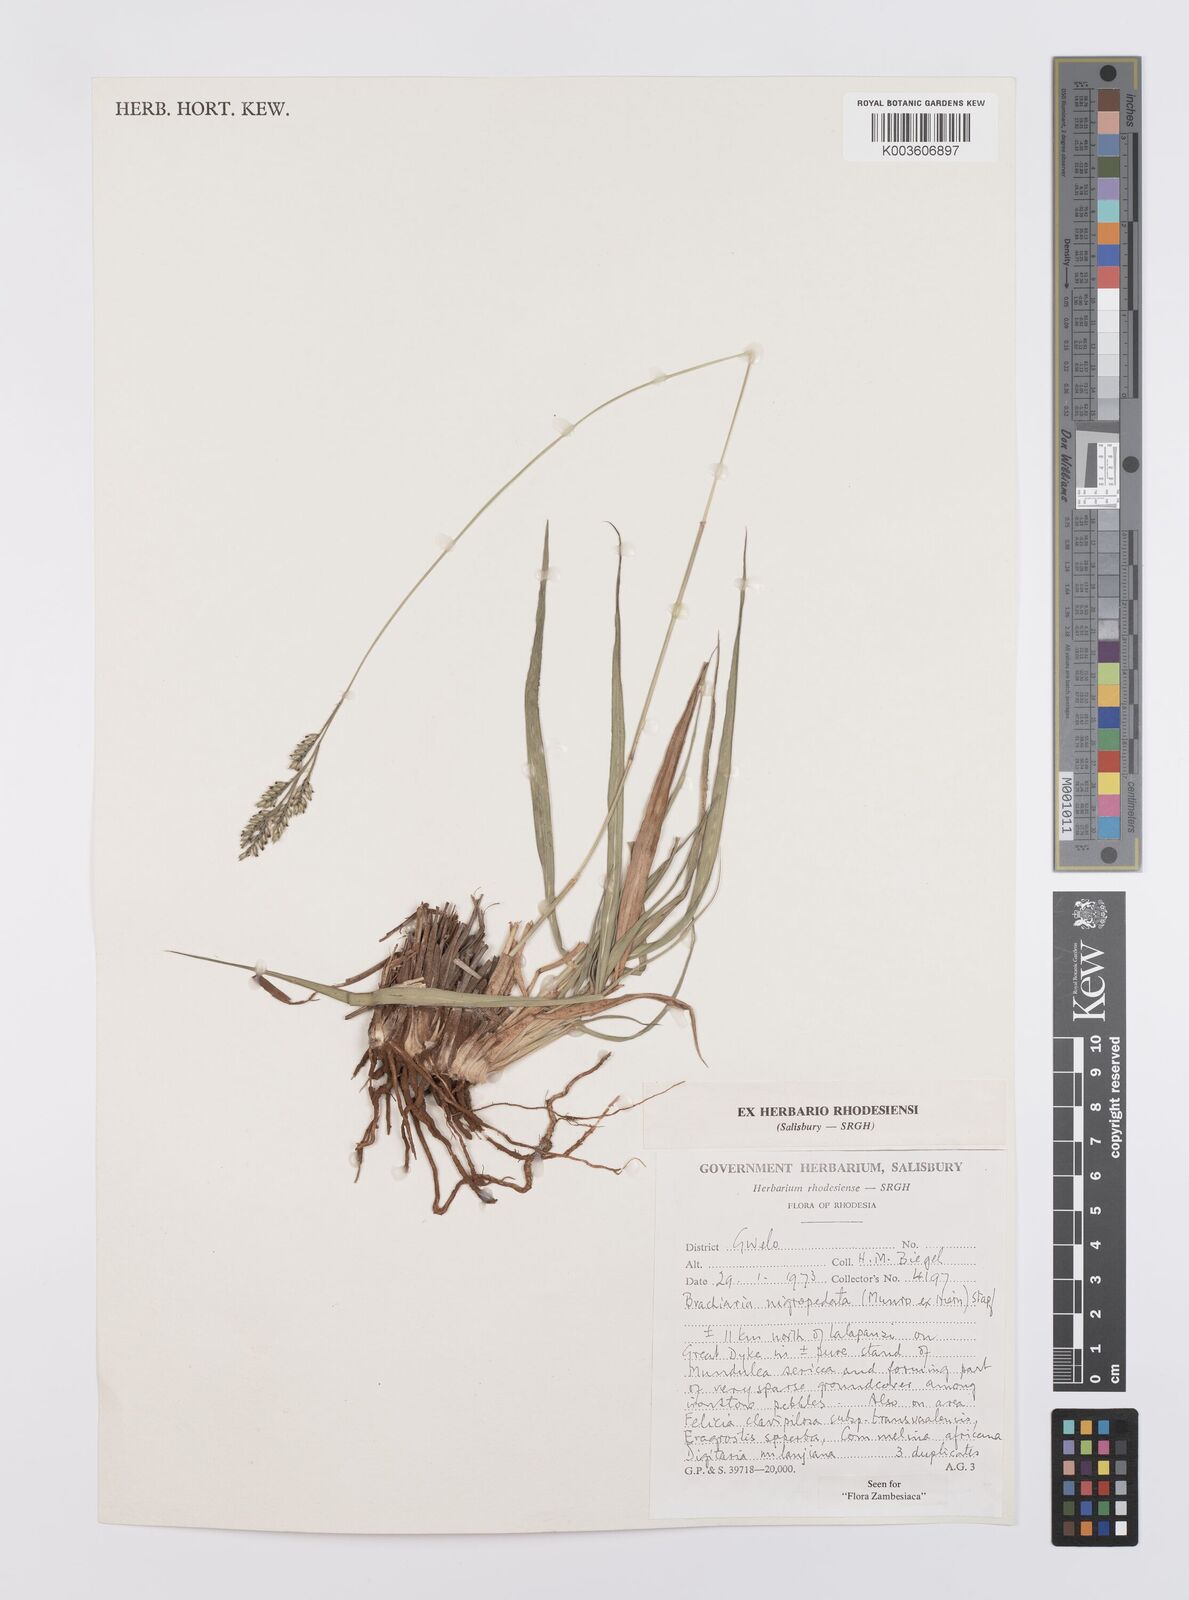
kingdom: Plantae
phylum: Tracheophyta
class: Liliopsida
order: Poales
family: Poaceae
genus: Urochloa
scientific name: Urochloa nigropedata
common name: Spotted signal grass
